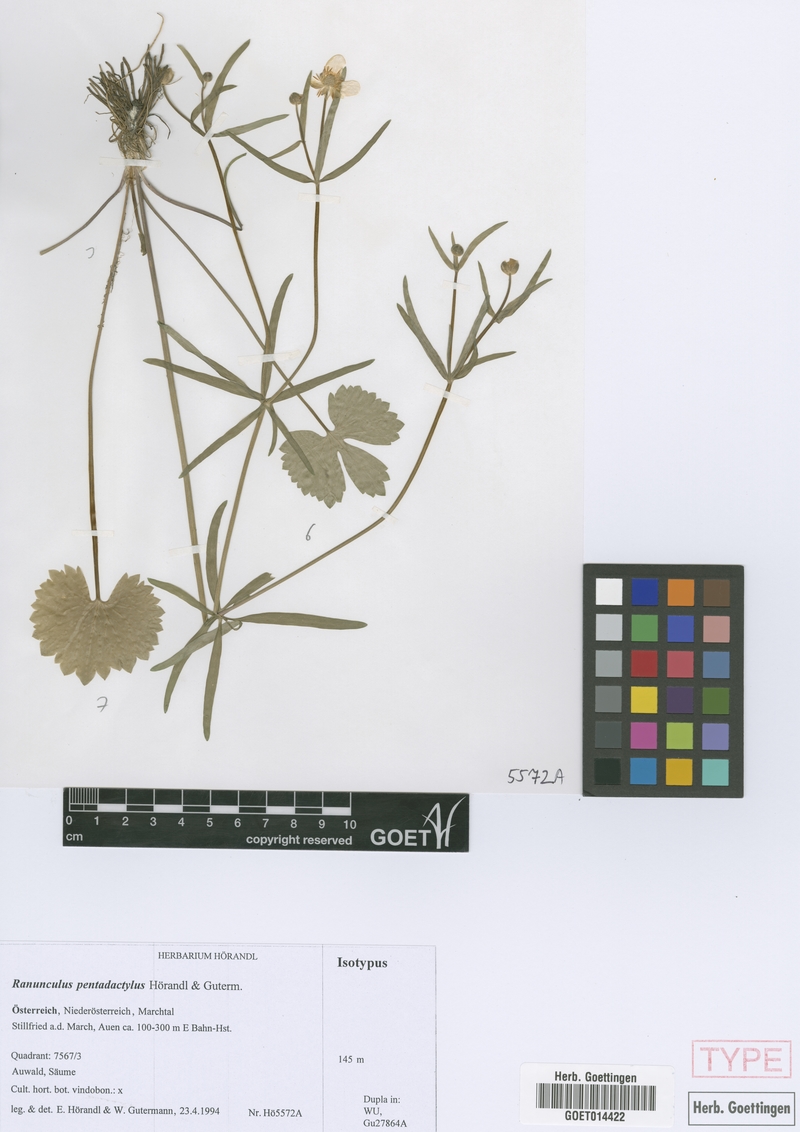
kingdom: Plantae
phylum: Tracheophyta
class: Magnoliopsida
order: Ranunculales
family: Ranunculaceae
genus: Ranunculus
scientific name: Ranunculus pentadactylus
